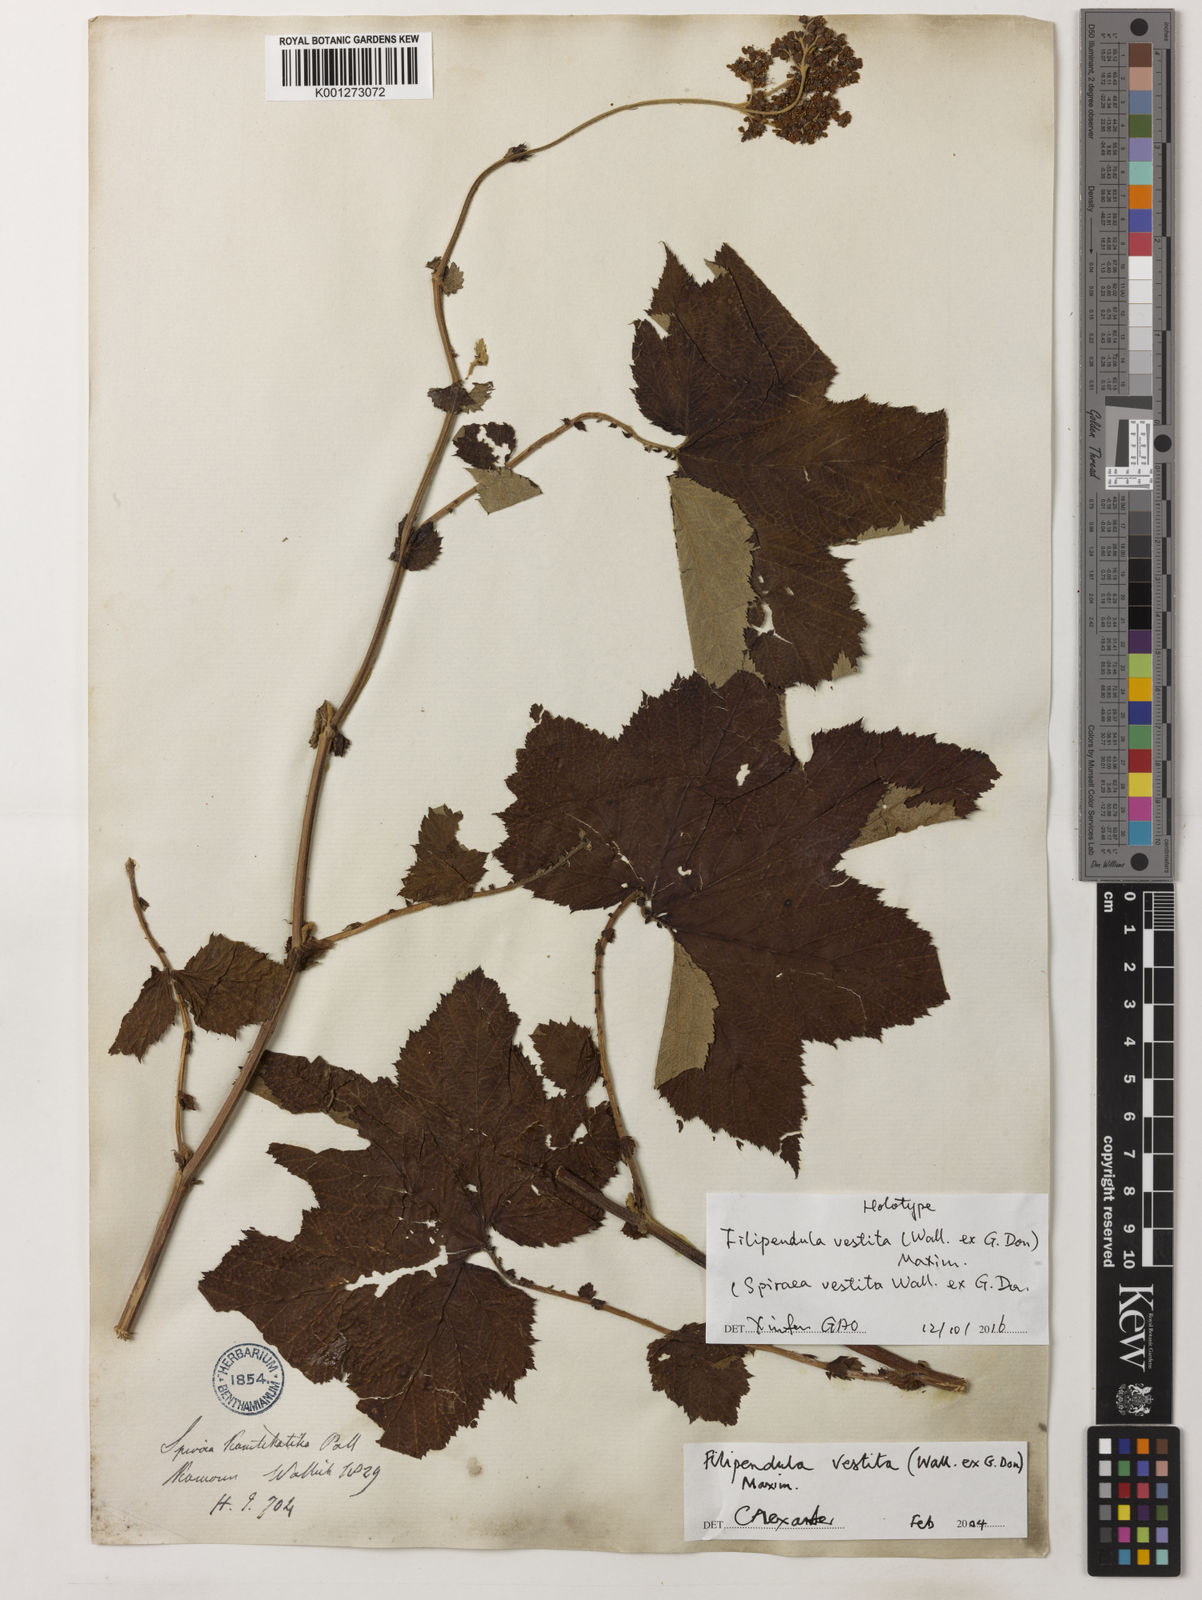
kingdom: Plantae
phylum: Tracheophyta
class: Magnoliopsida
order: Rosales
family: Rosaceae
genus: Filipendula
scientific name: Filipendula vestita
